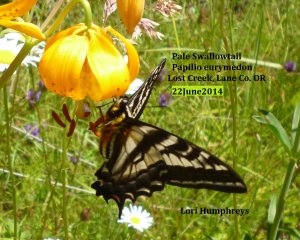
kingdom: Animalia
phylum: Arthropoda
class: Insecta
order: Lepidoptera
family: Papilionidae
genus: Pterourus
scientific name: Pterourus eurymedon
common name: Pale Swallowtail
